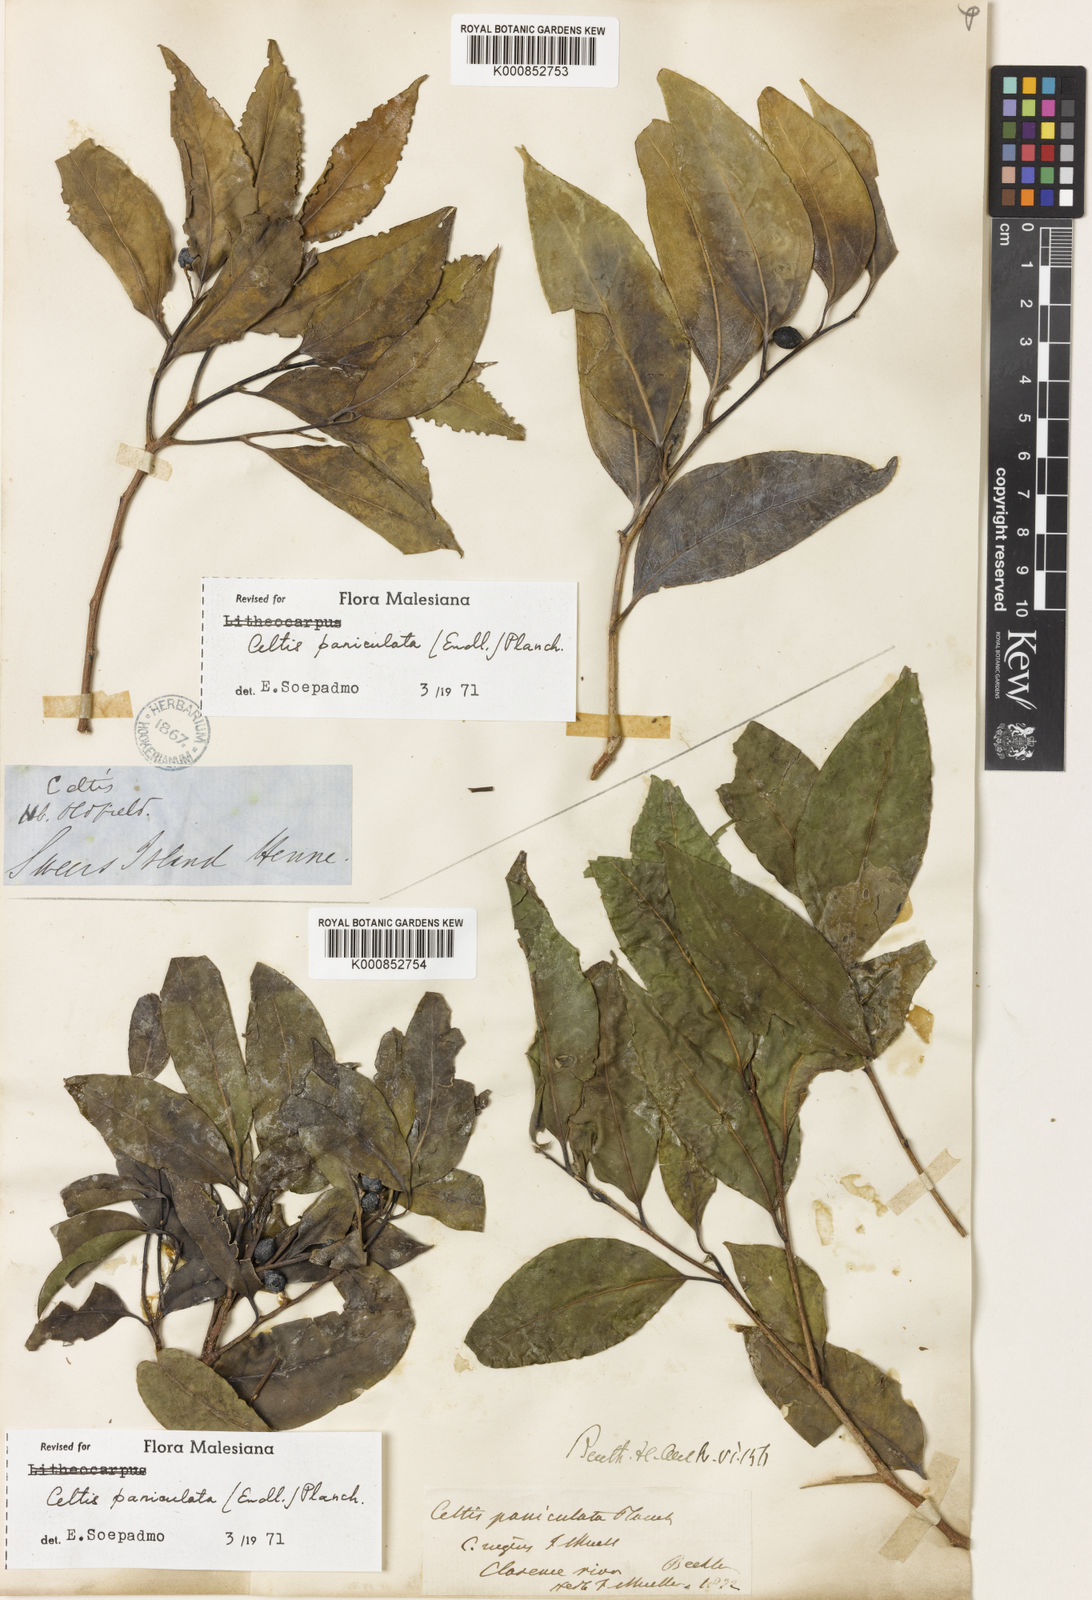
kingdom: Plantae
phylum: Tracheophyta
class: Magnoliopsida
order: Rosales
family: Cannabaceae
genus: Celtis
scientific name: Celtis paniculata
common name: Silky celtis
